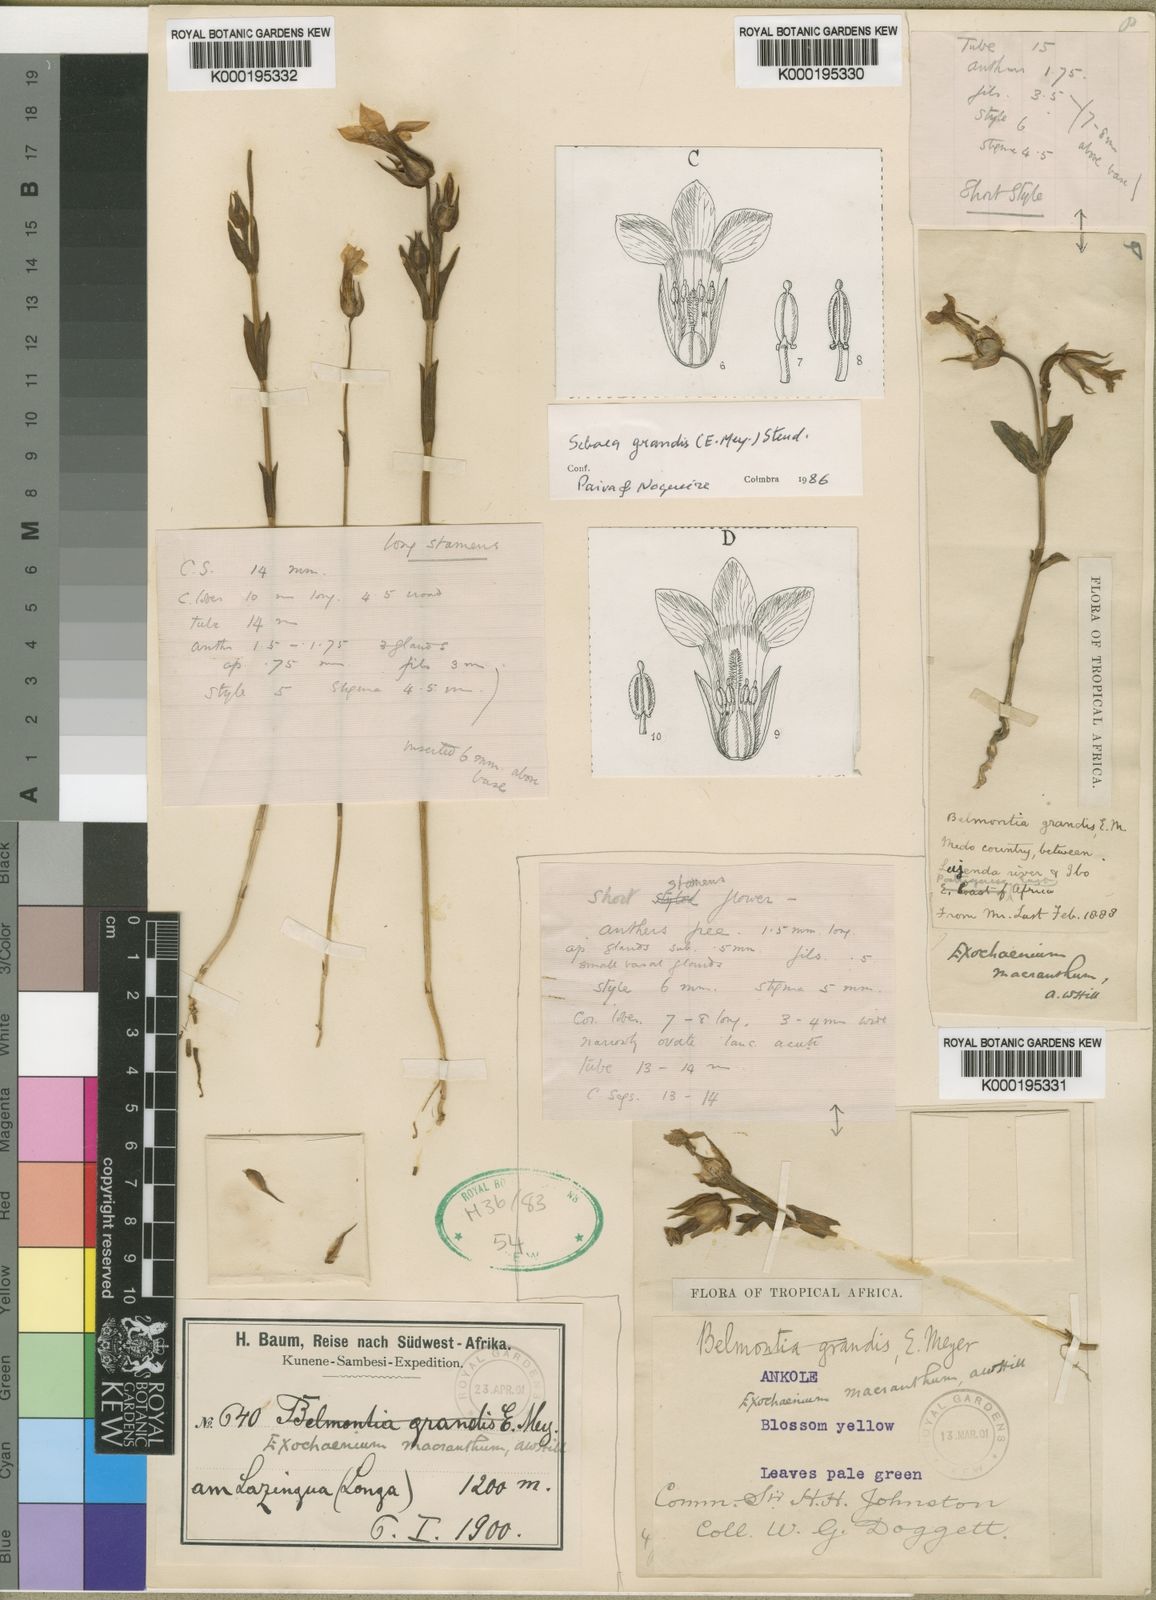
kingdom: Plantae
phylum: Tracheophyta
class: Magnoliopsida
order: Gentianales
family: Gentianaceae
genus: Exochaenium
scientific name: Exochaenium grande
